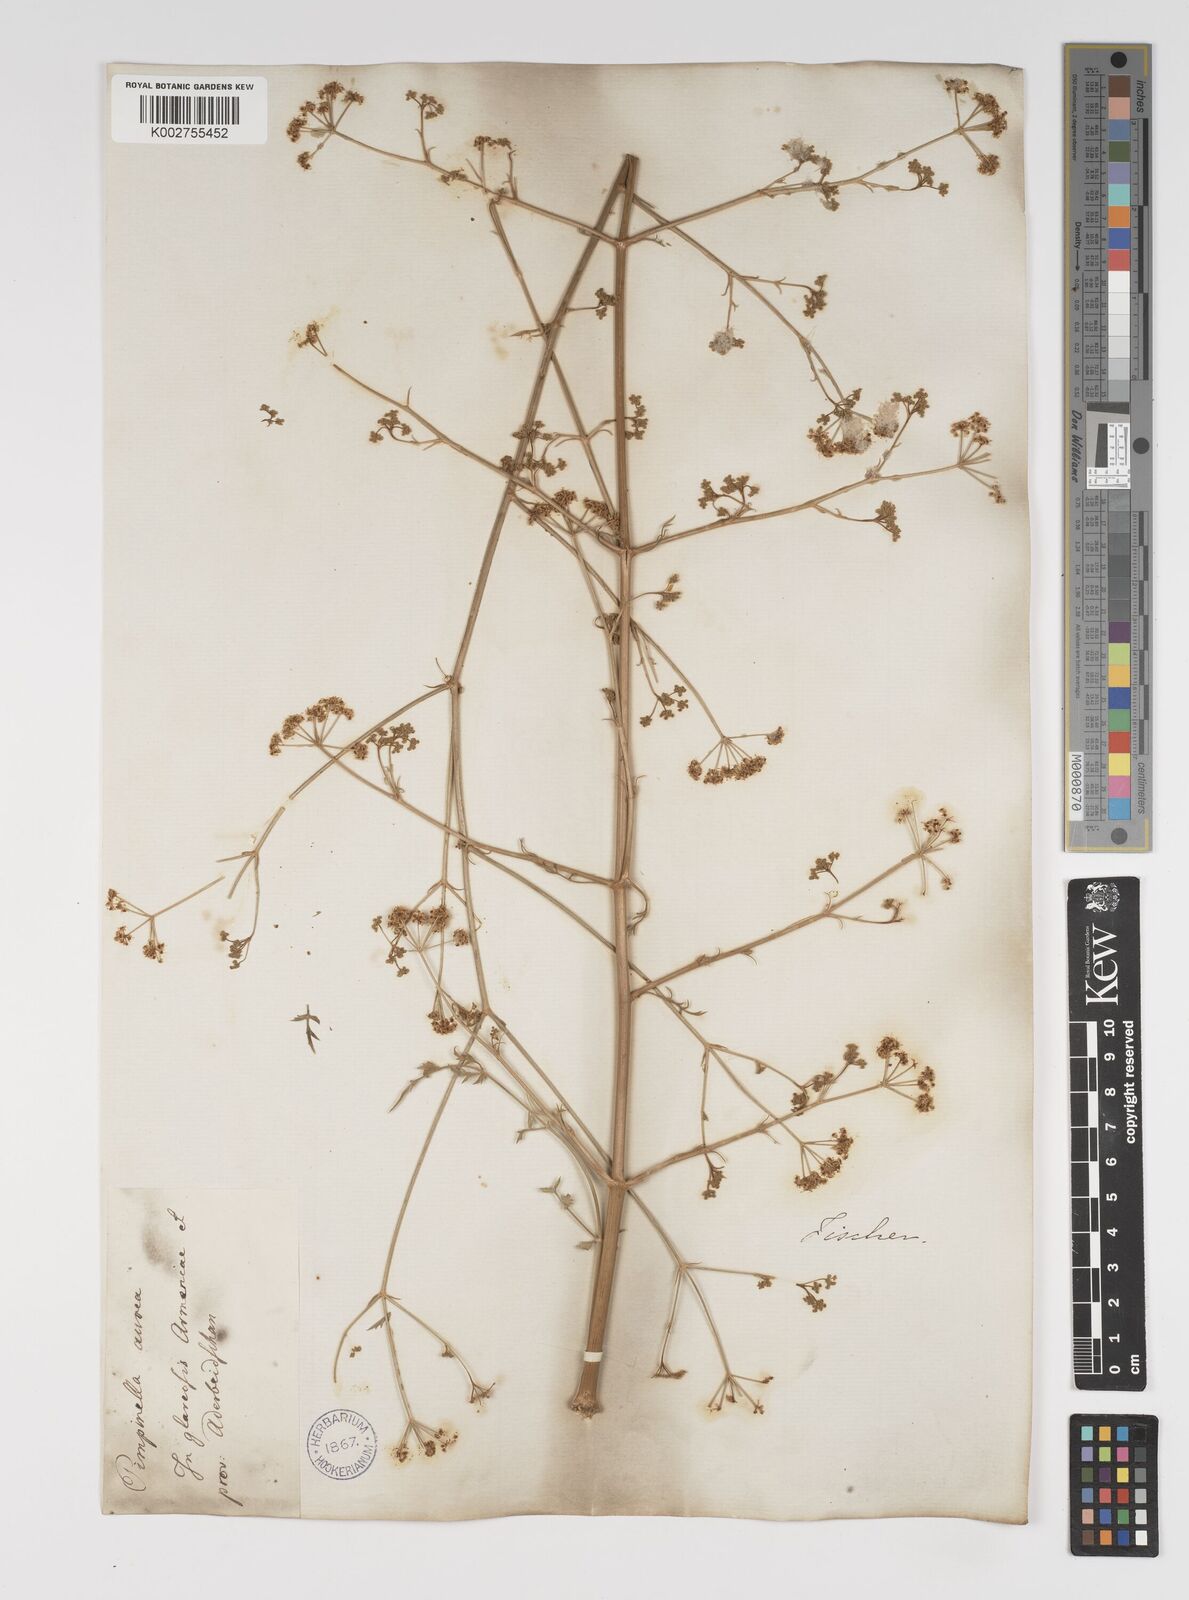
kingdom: Plantae
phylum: Tracheophyta
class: Magnoliopsida
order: Apiales
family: Apiaceae
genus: Pimpinella
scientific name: Pimpinella aurea
